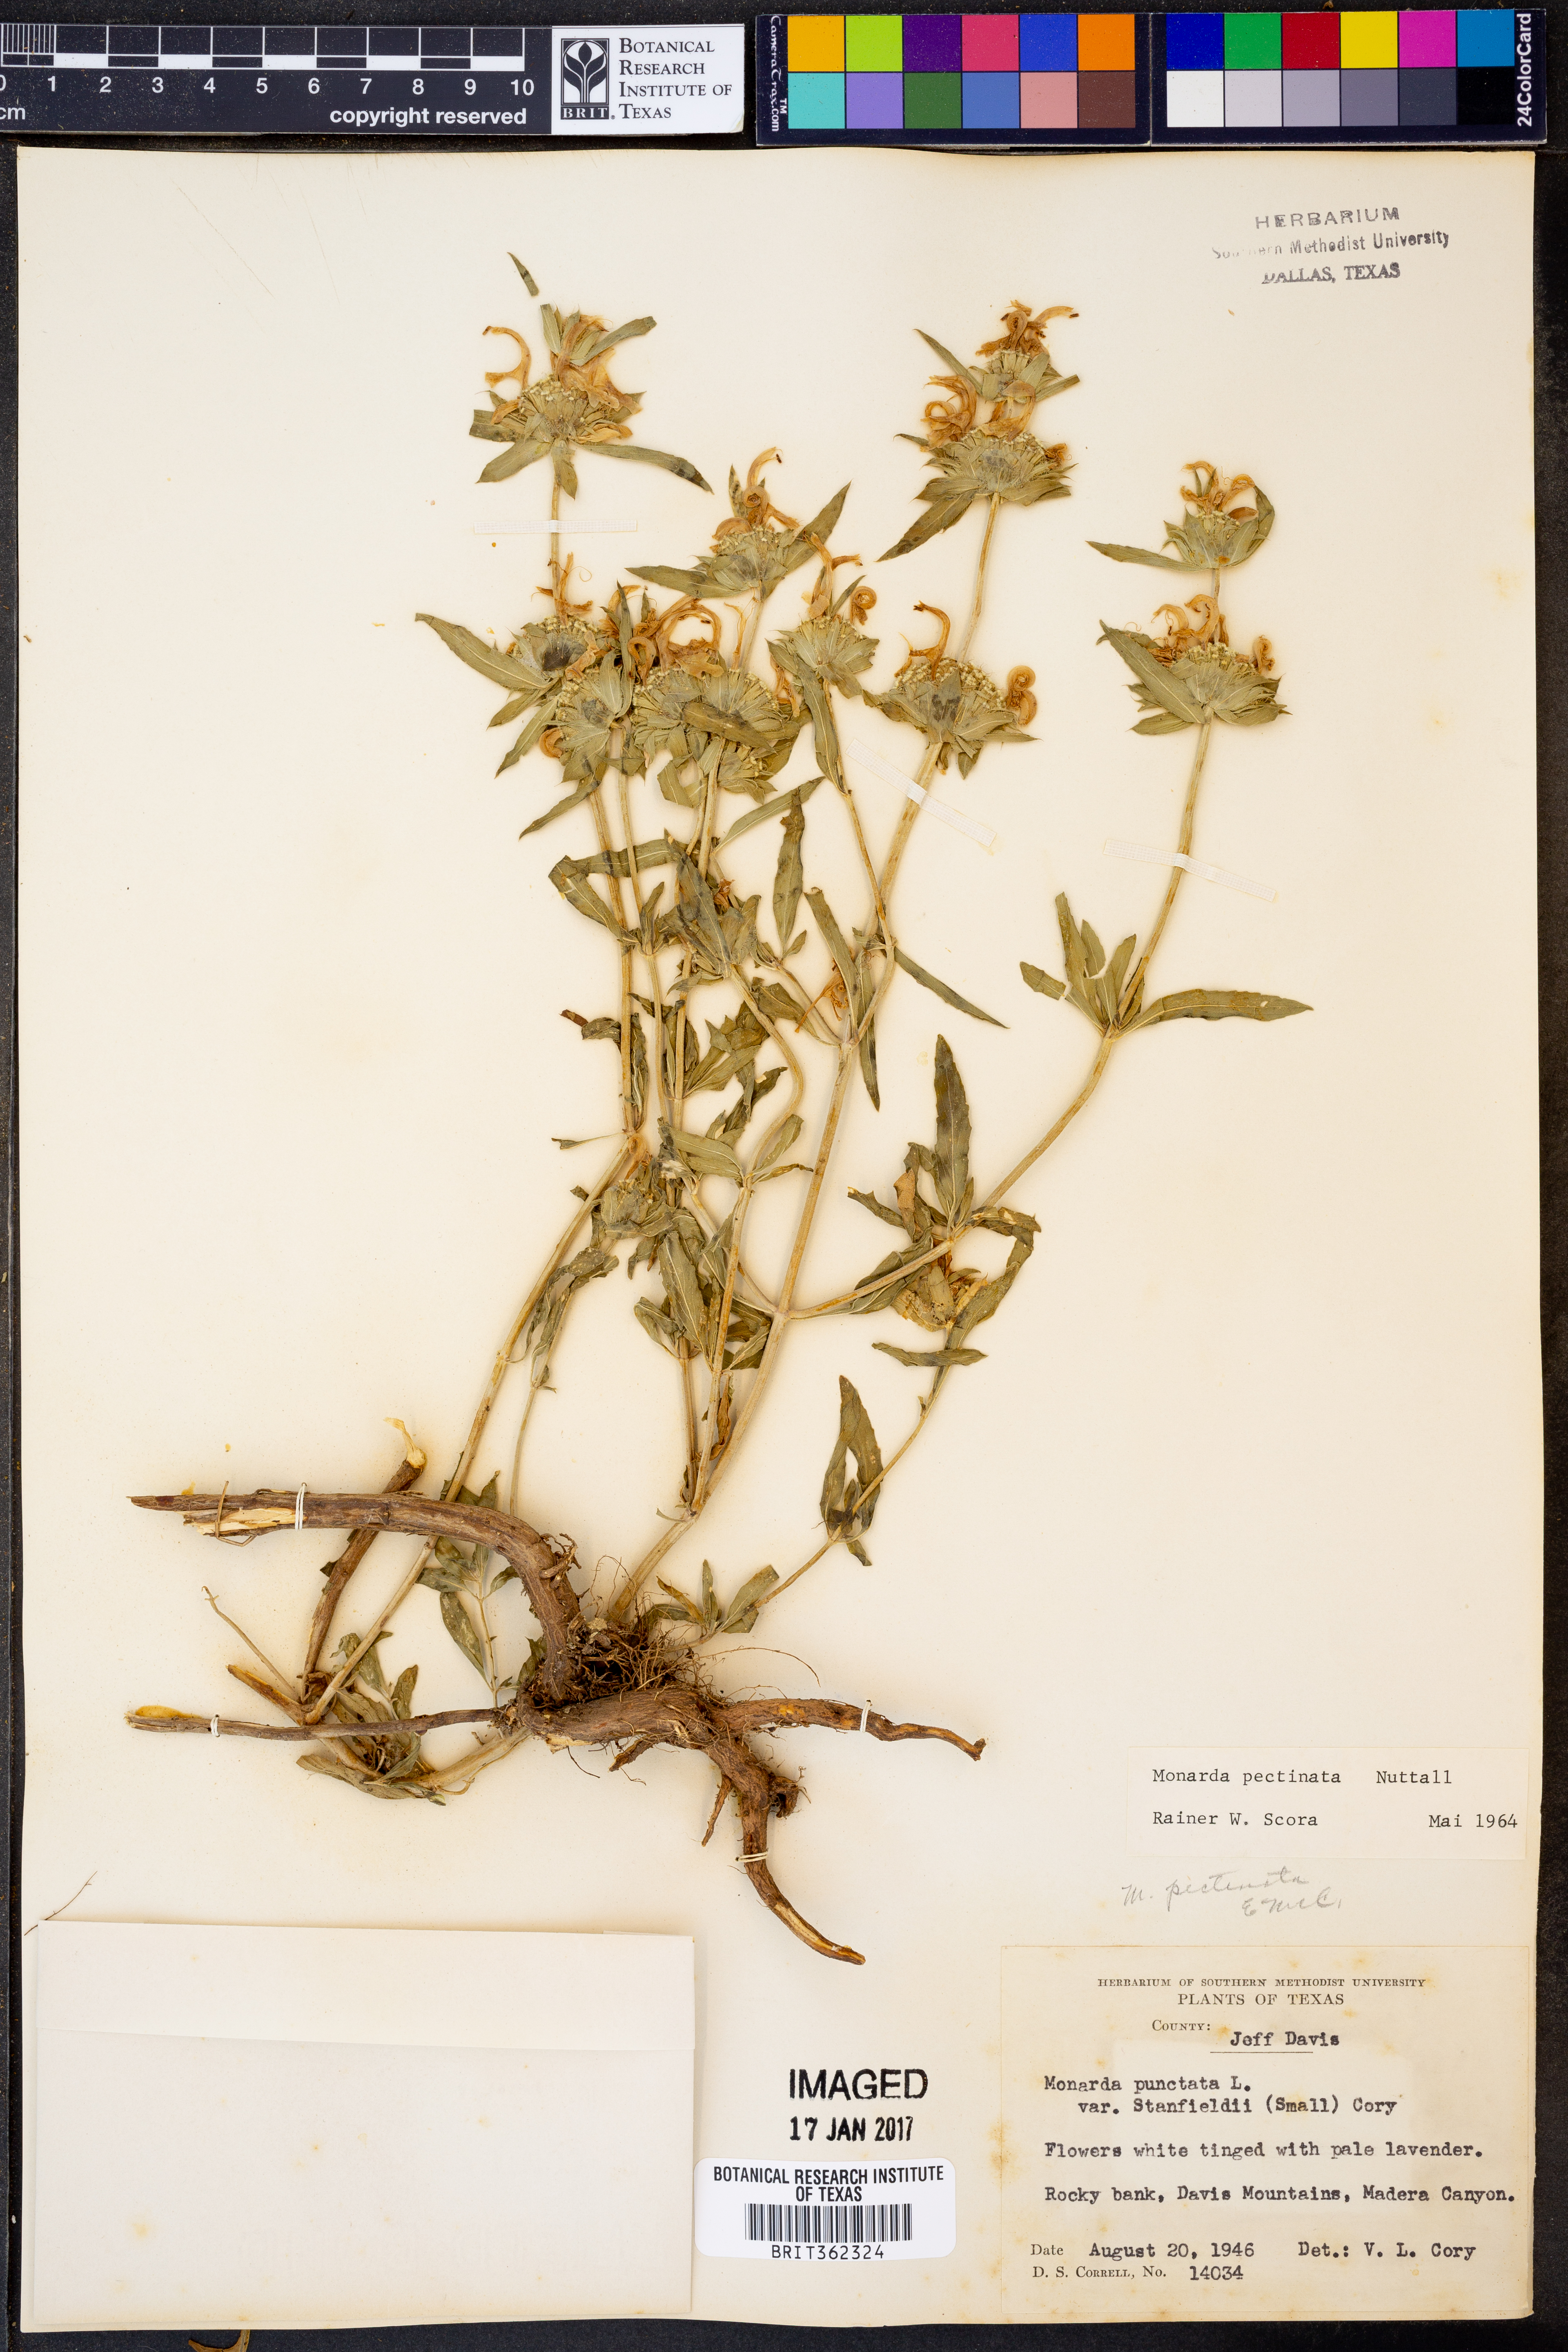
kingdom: Plantae
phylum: Tracheophyta
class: Magnoliopsida
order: Lamiales
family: Lamiaceae
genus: Monarda
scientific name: Monarda pectinata
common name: Plains beebalm
